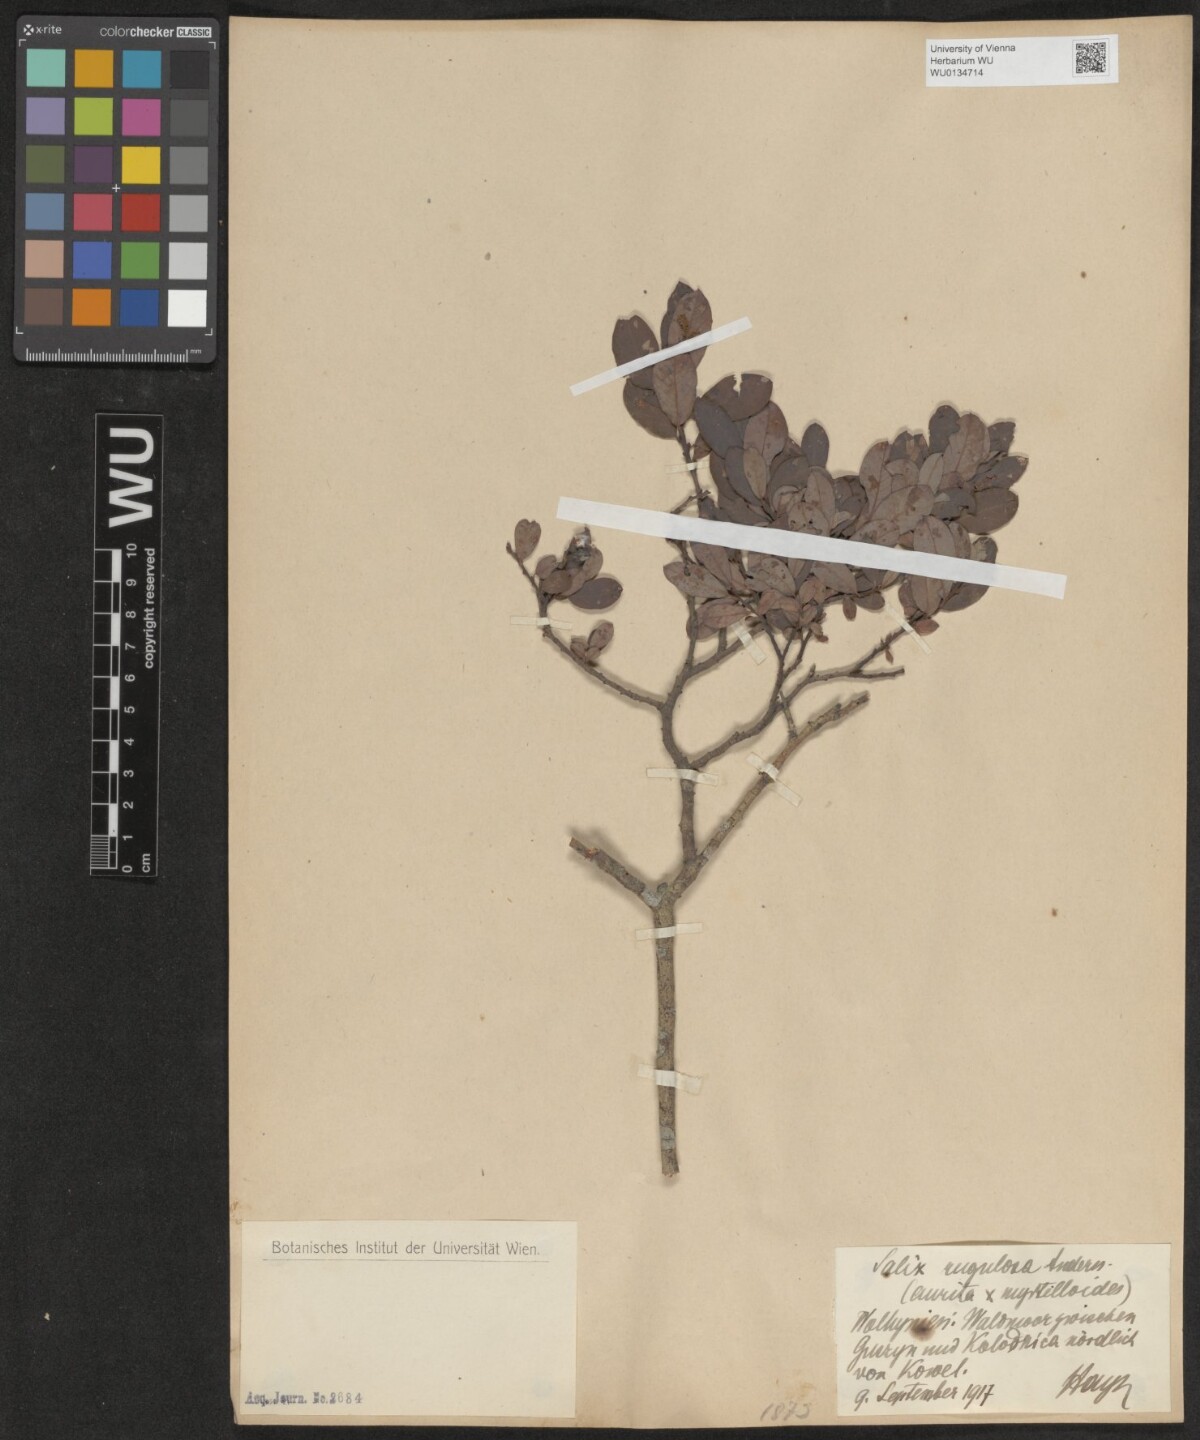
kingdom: Plantae
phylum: Tracheophyta
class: Magnoliopsida
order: Malpighiales
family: Salicaceae
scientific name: Salicaceae
